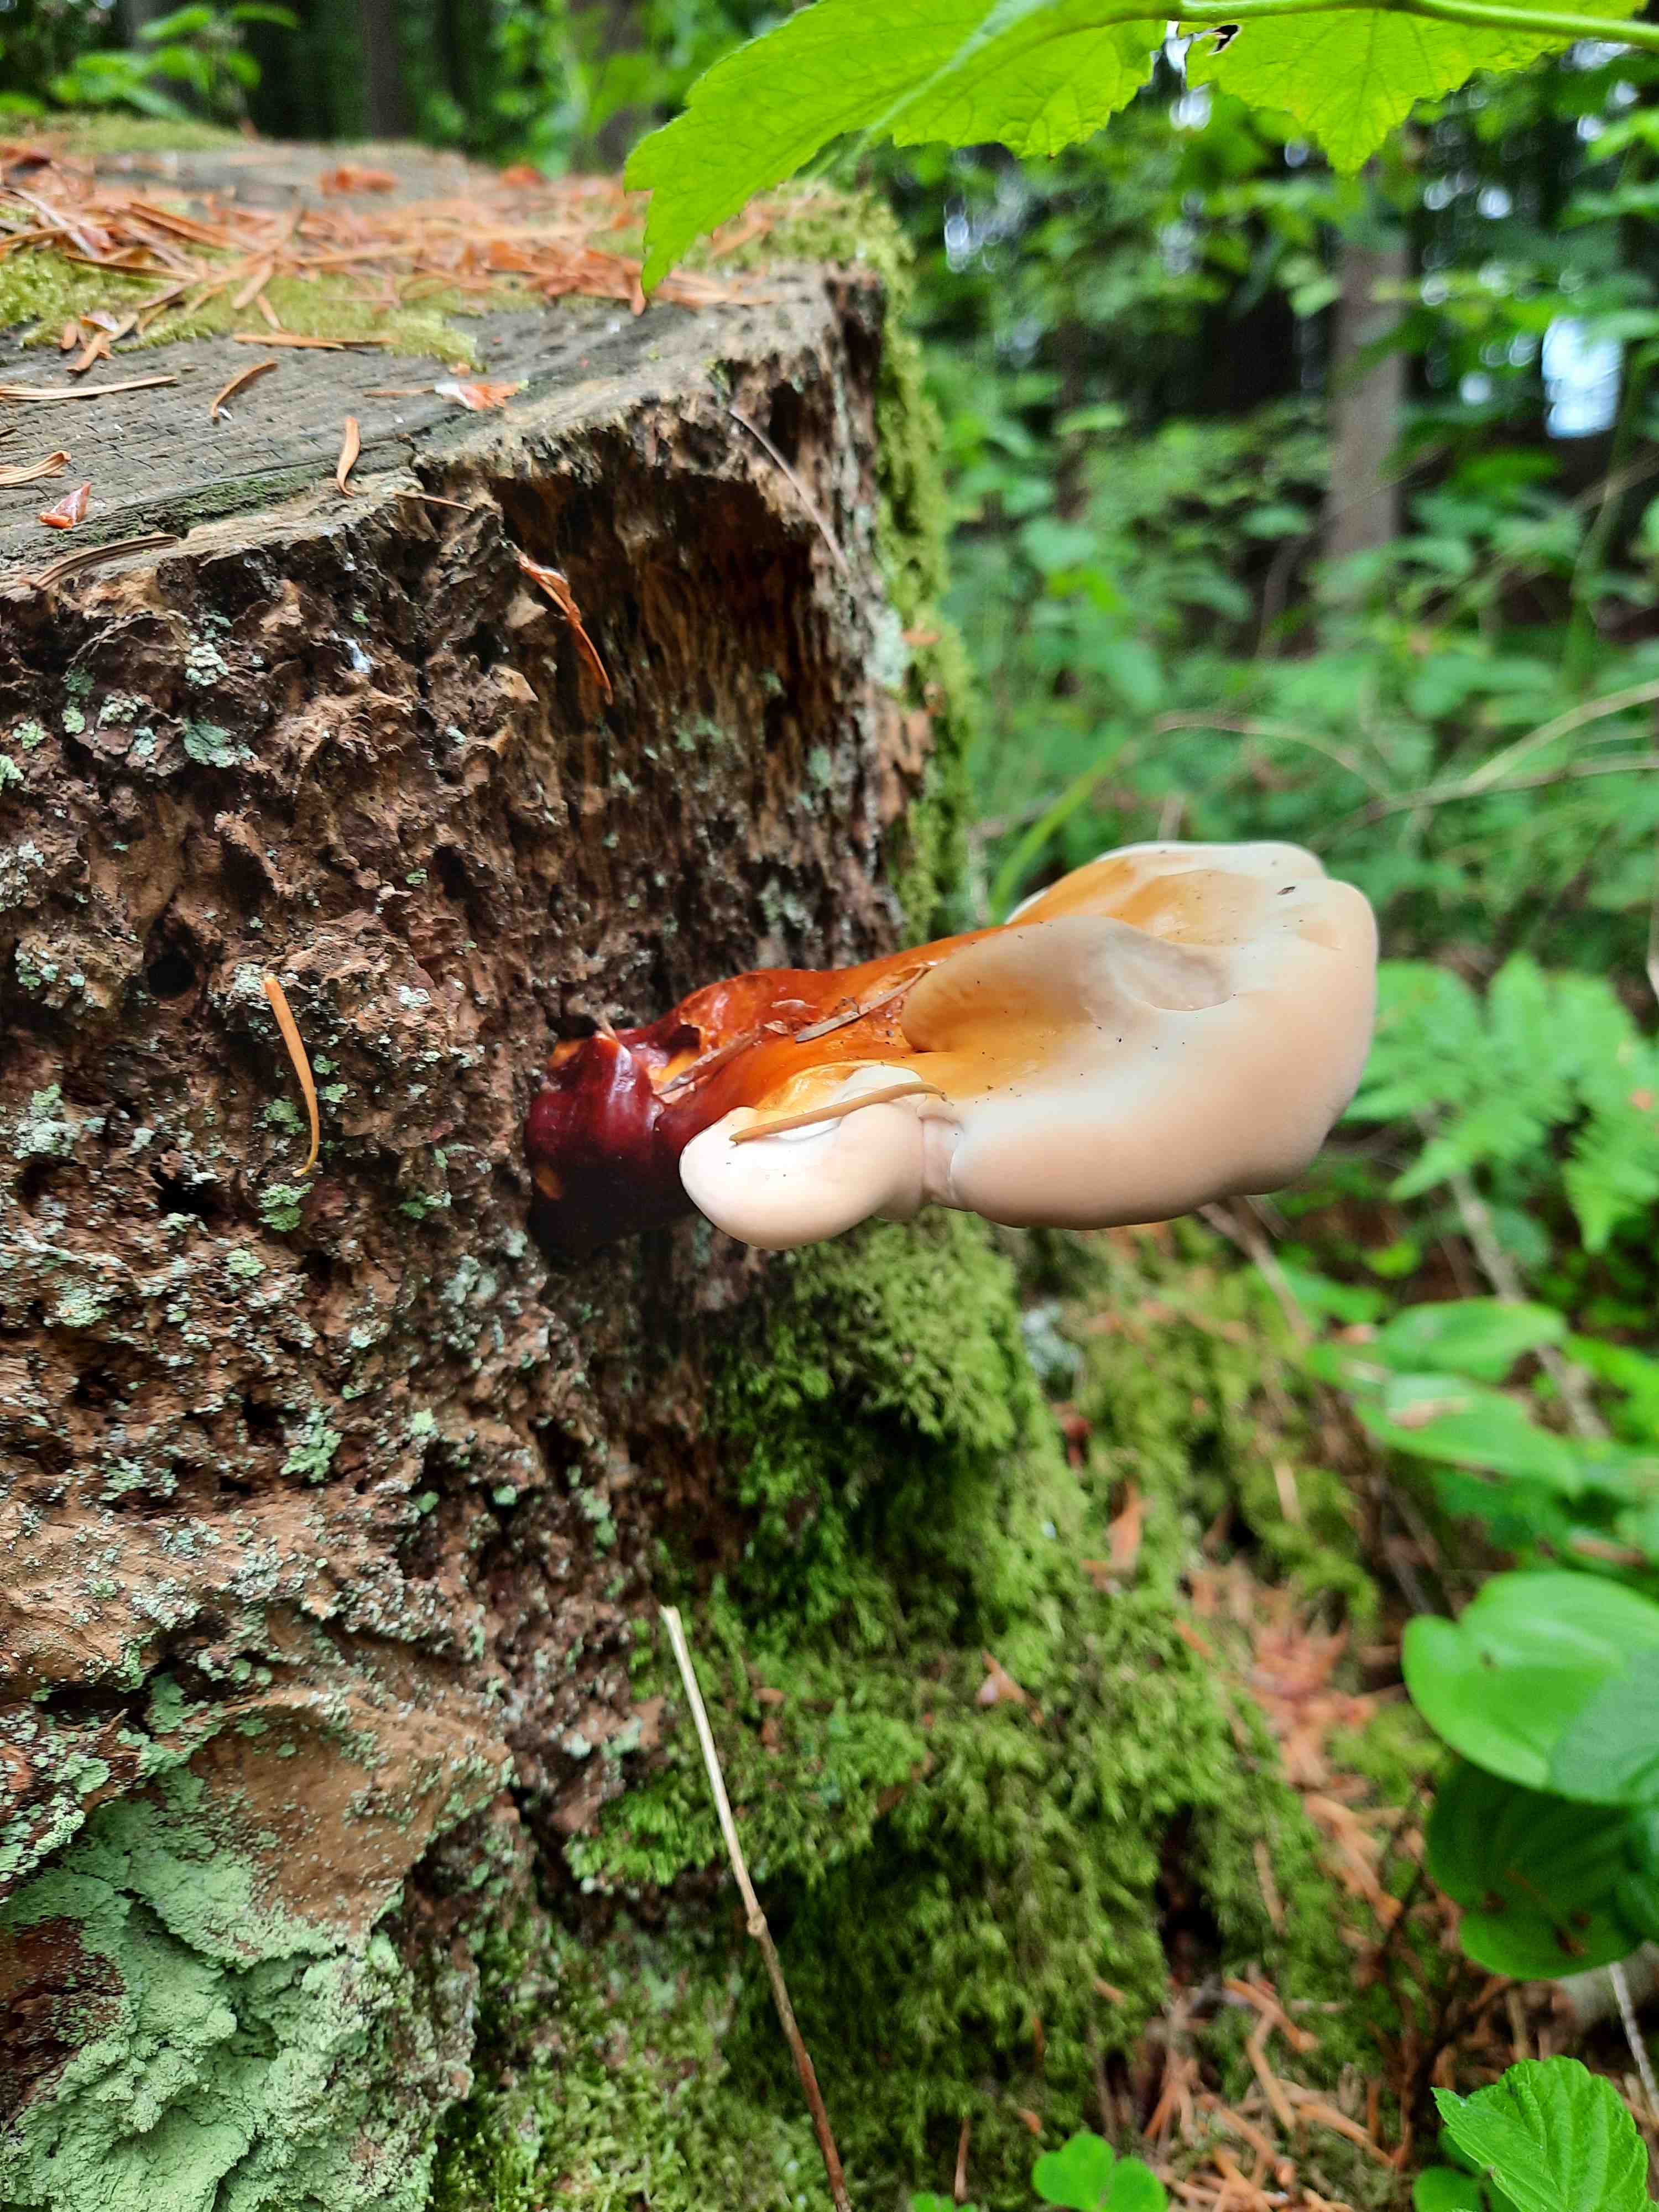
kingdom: Fungi
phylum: Basidiomycota
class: Agaricomycetes
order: Polyporales
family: Polyporaceae
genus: Ganoderma
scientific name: Ganoderma lucidum
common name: skinnende lakporesvamp
